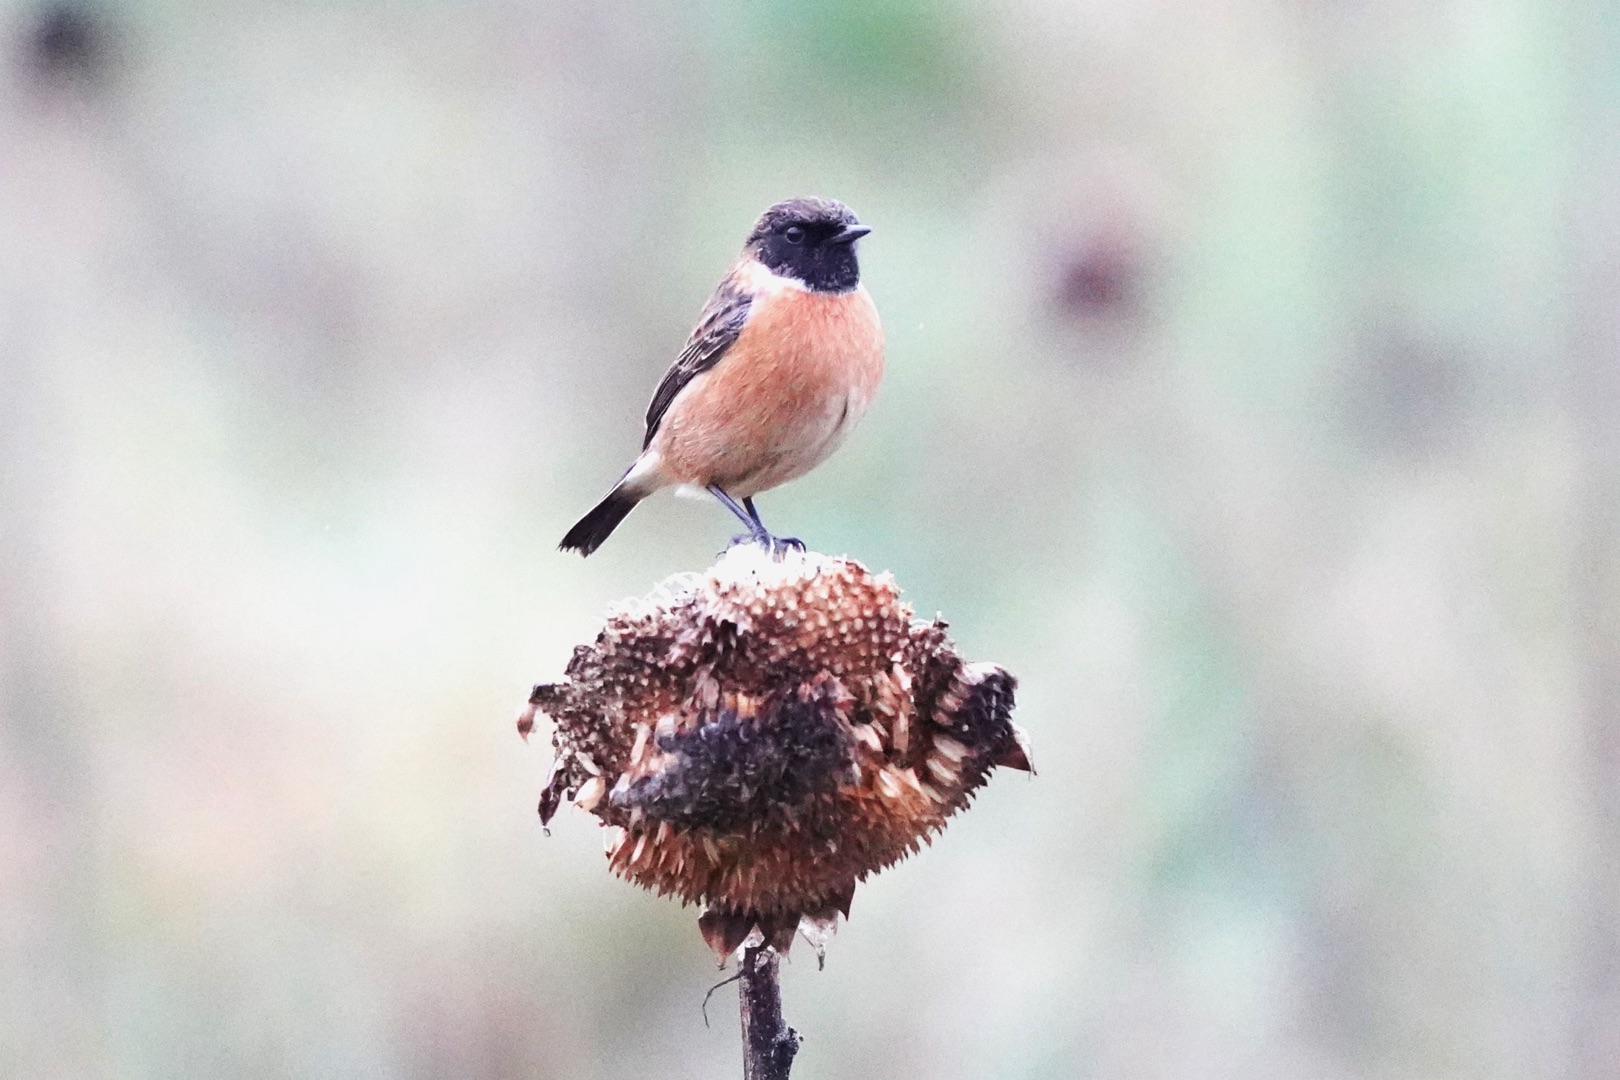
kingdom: Animalia
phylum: Chordata
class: Aves
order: Passeriformes
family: Muscicapidae
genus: Saxicola
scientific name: Saxicola rubicola
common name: Sortstrubet bynkefugl
